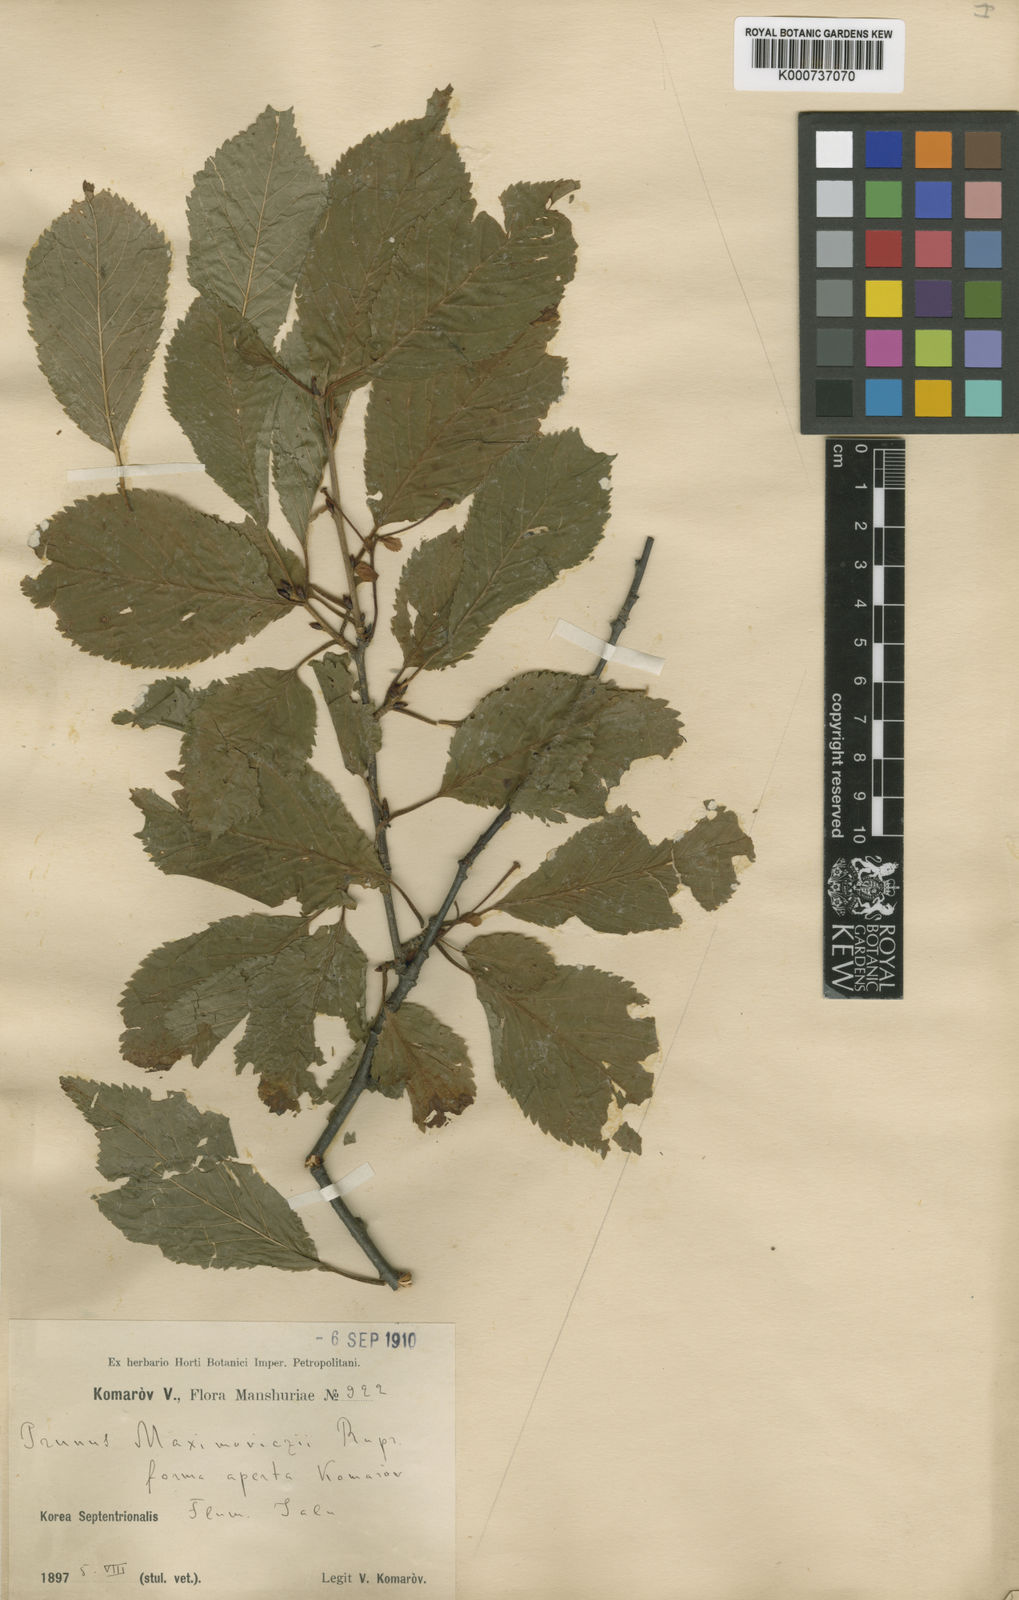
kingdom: Plantae
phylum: Tracheophyta
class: Magnoliopsida
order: Rosales
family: Rosaceae
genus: Prunus
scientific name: Prunus maximowiczii
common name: Korean cherry
